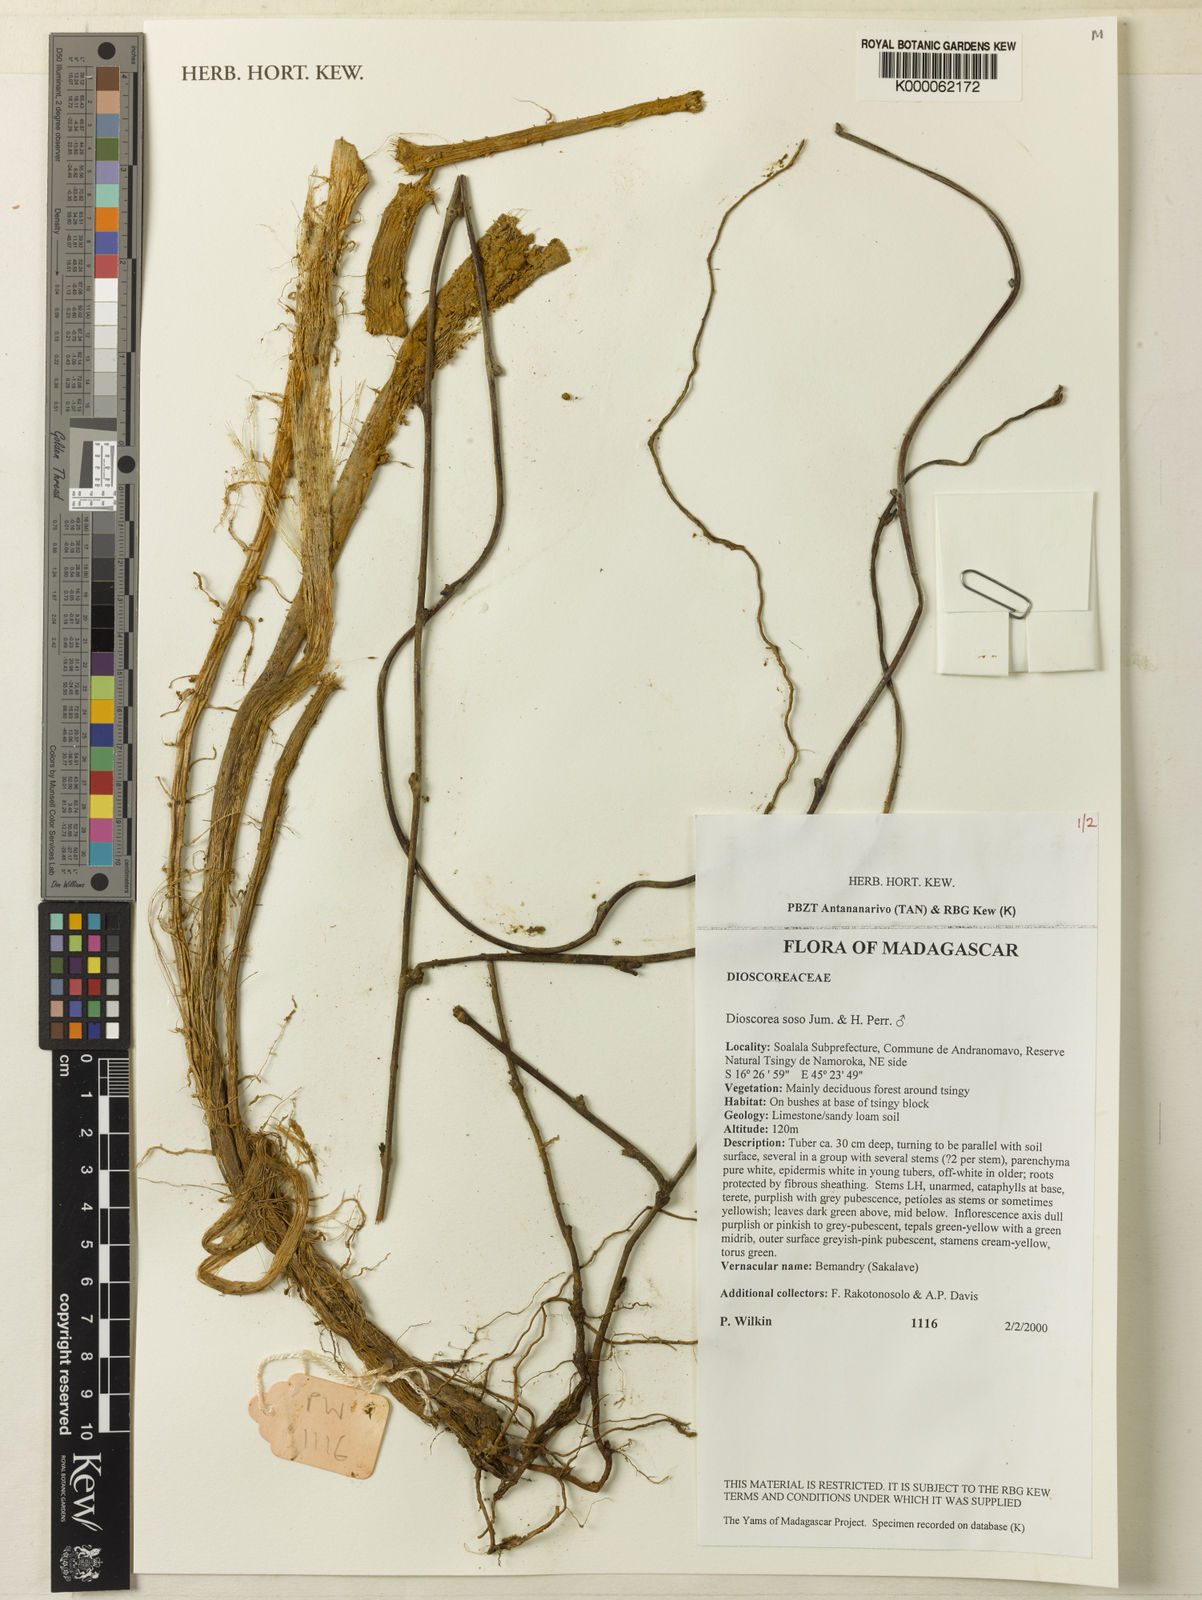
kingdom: Plantae
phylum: Tracheophyta
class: Liliopsida
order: Dioscoreales
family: Dioscoreaceae
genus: Dioscorea
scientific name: Dioscorea soso
